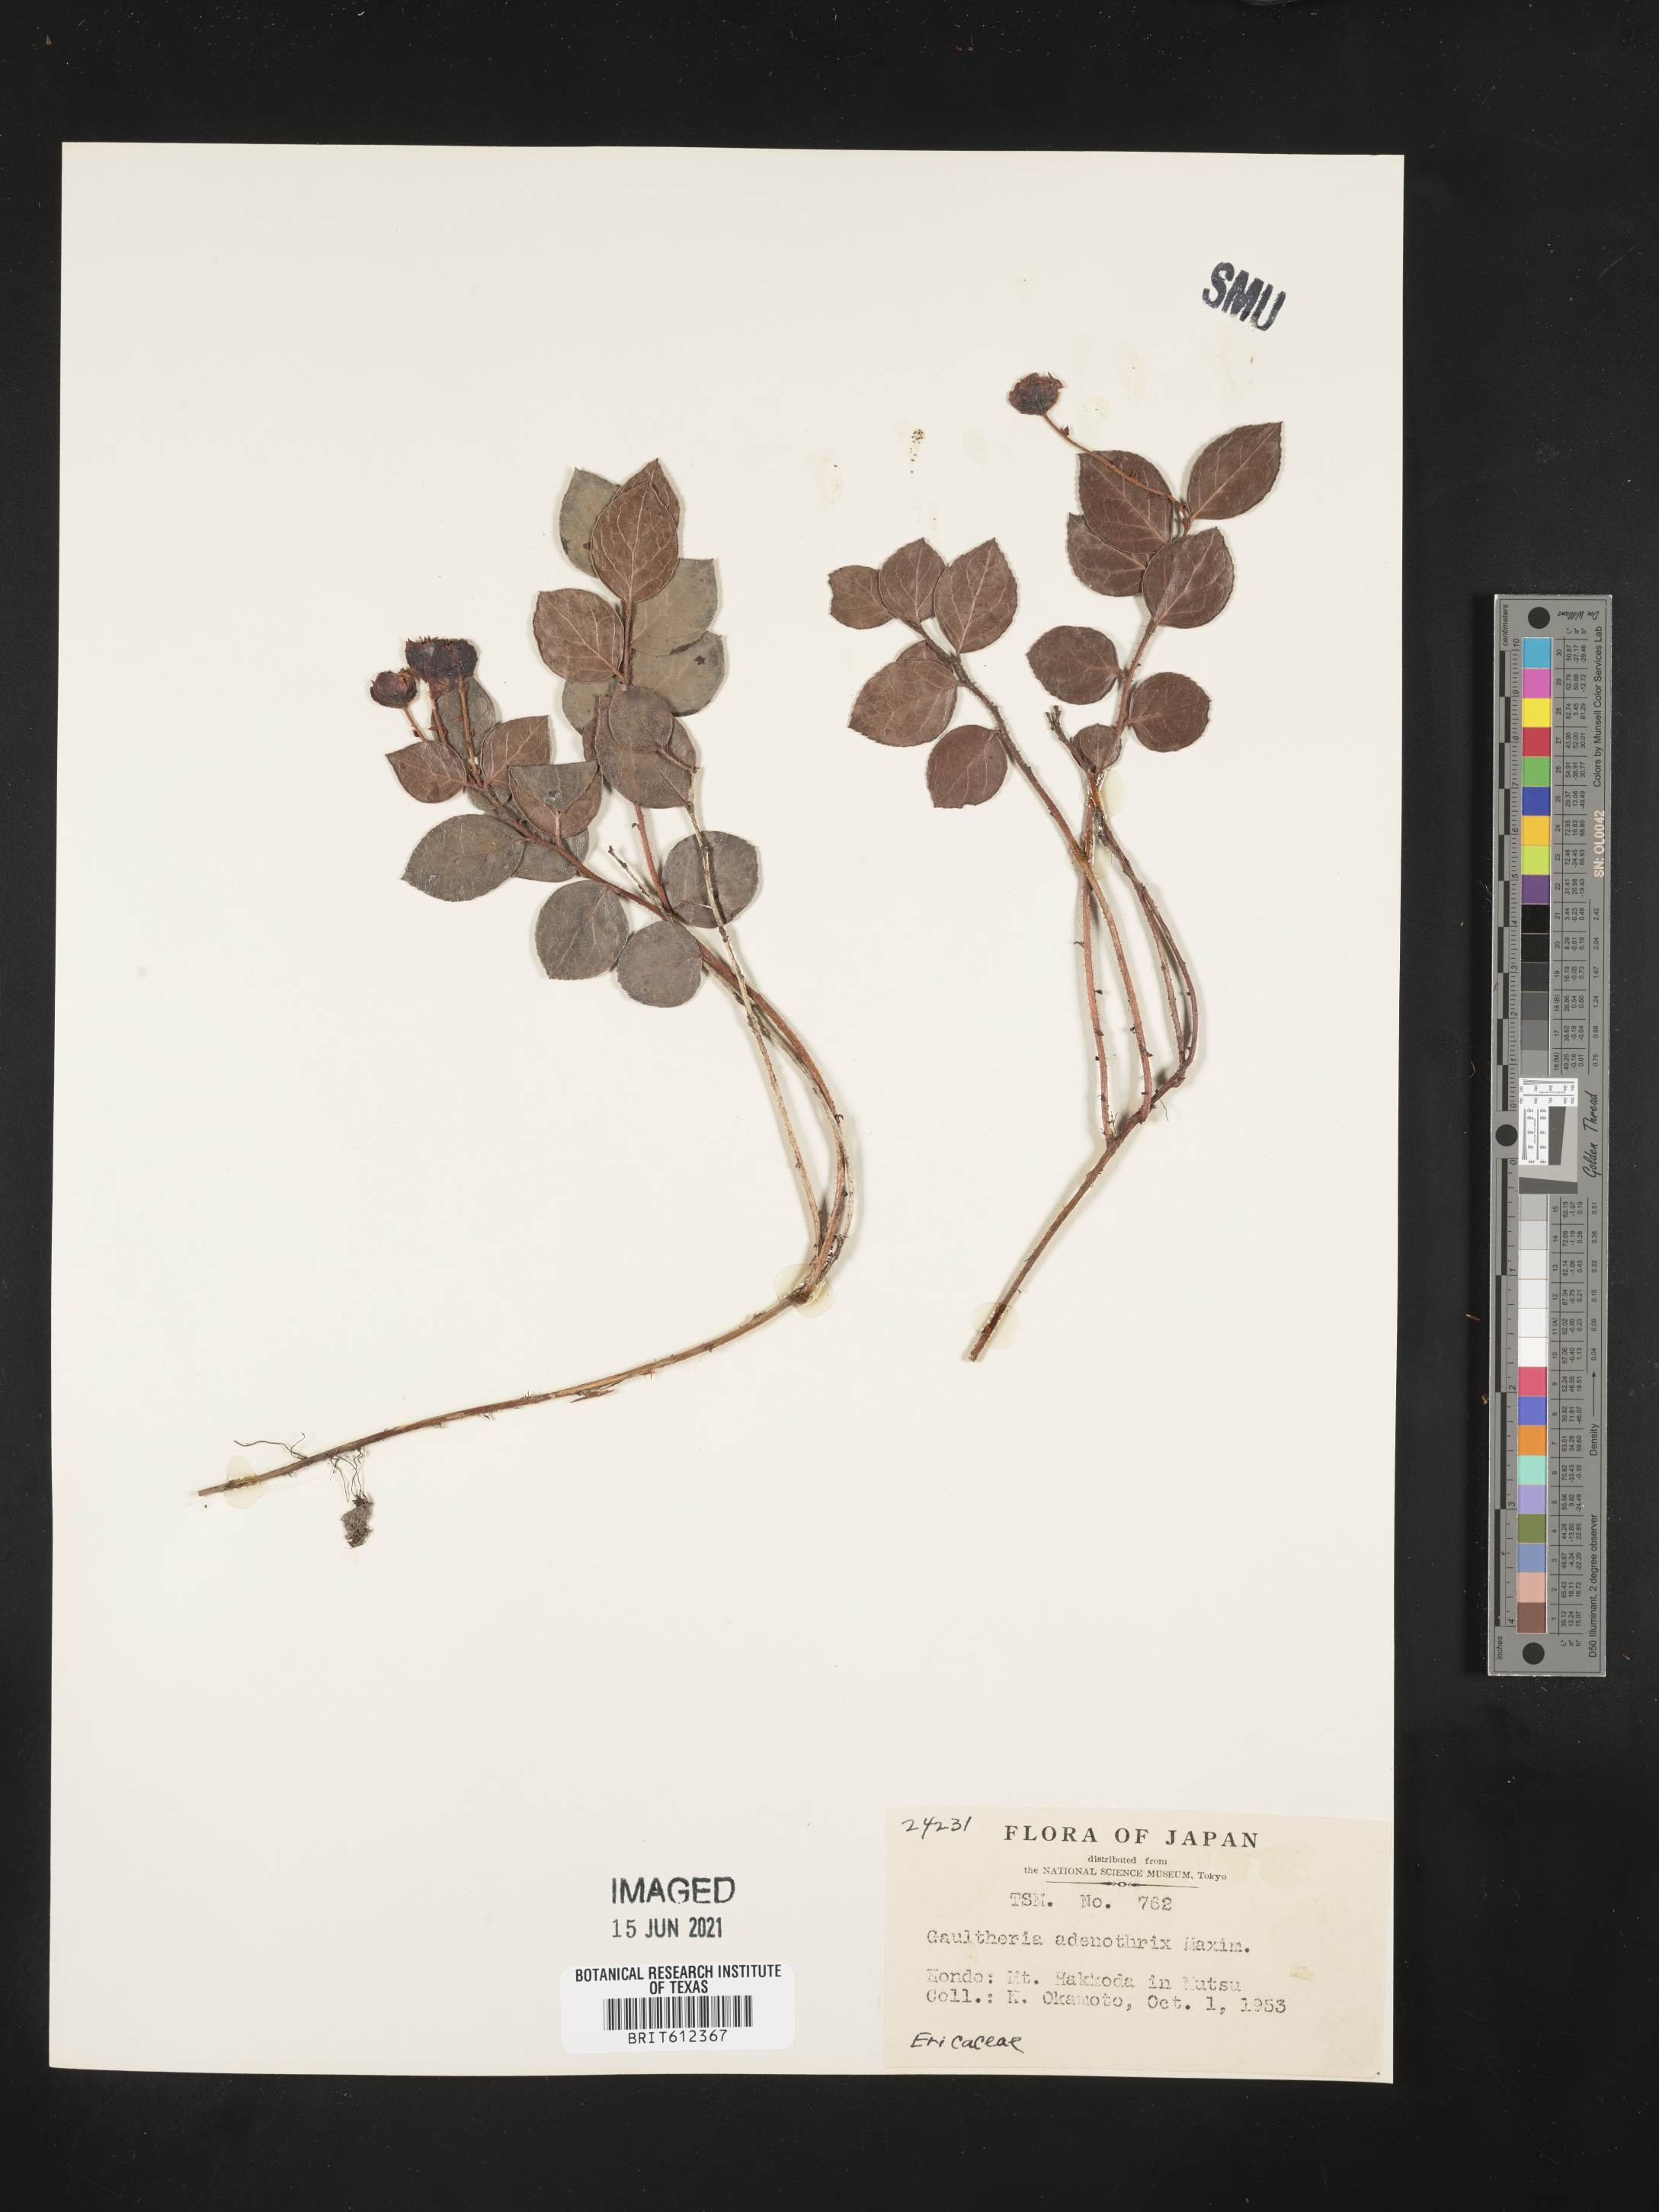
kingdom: Plantae
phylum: Tracheophyta
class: Magnoliopsida
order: Ericales
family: Ericaceae
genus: Gaultheria
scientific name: Gaultheria adenothrix
